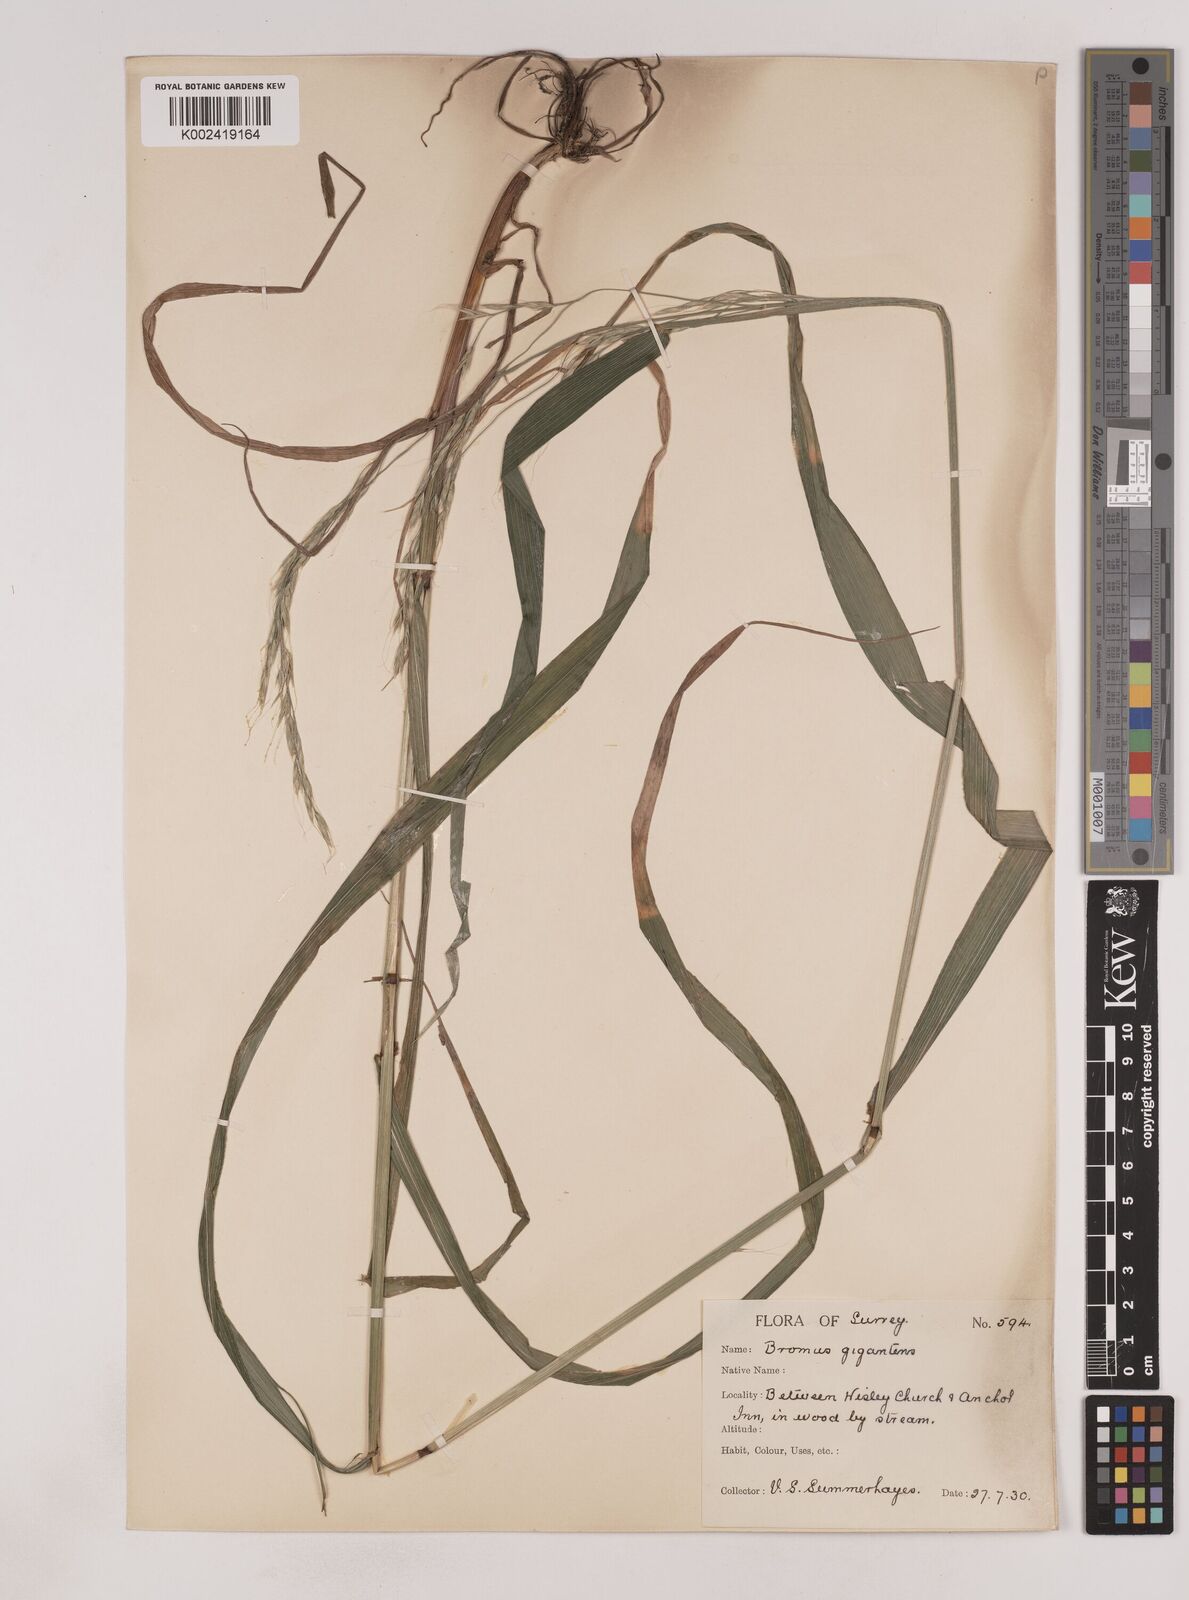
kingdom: Plantae
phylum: Tracheophyta
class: Liliopsida
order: Poales
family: Poaceae
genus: Lolium
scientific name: Lolium giganteum
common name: Giant fescue
